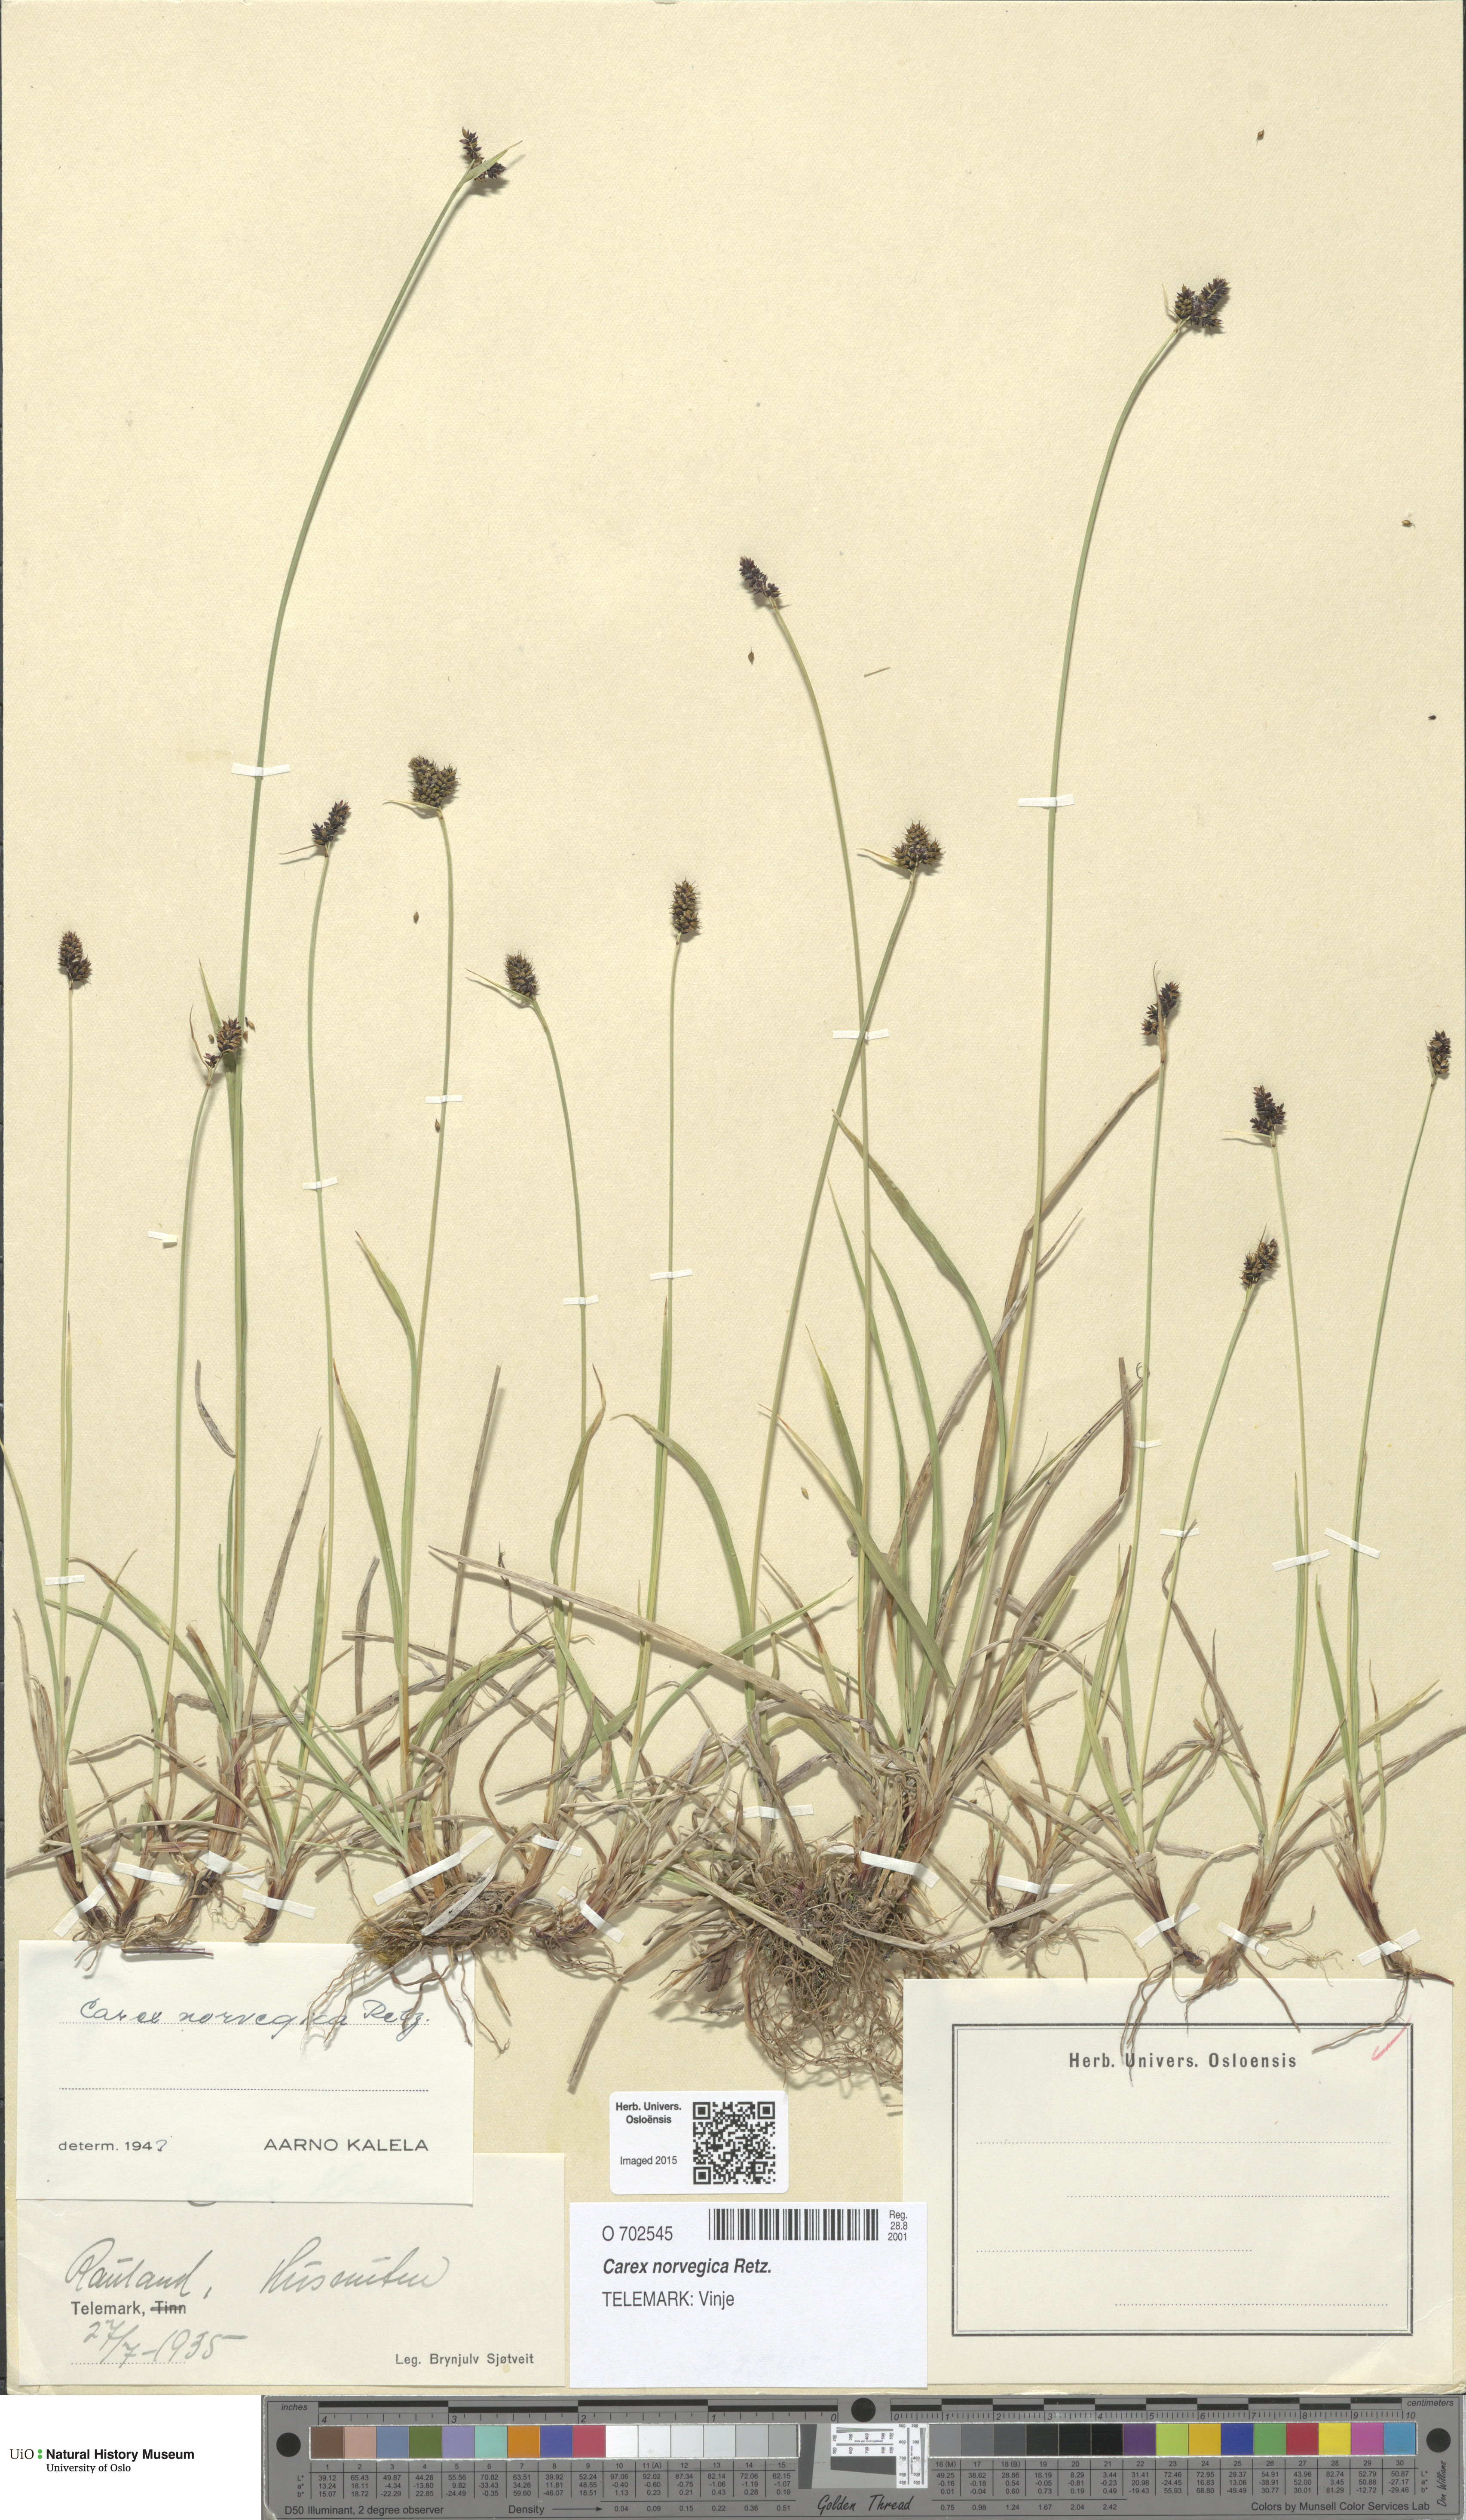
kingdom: Plantae
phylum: Tracheophyta
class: Liliopsida
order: Poales
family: Cyperaceae
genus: Carex
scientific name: Carex norvegica
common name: Close-headed alpine-sedge
